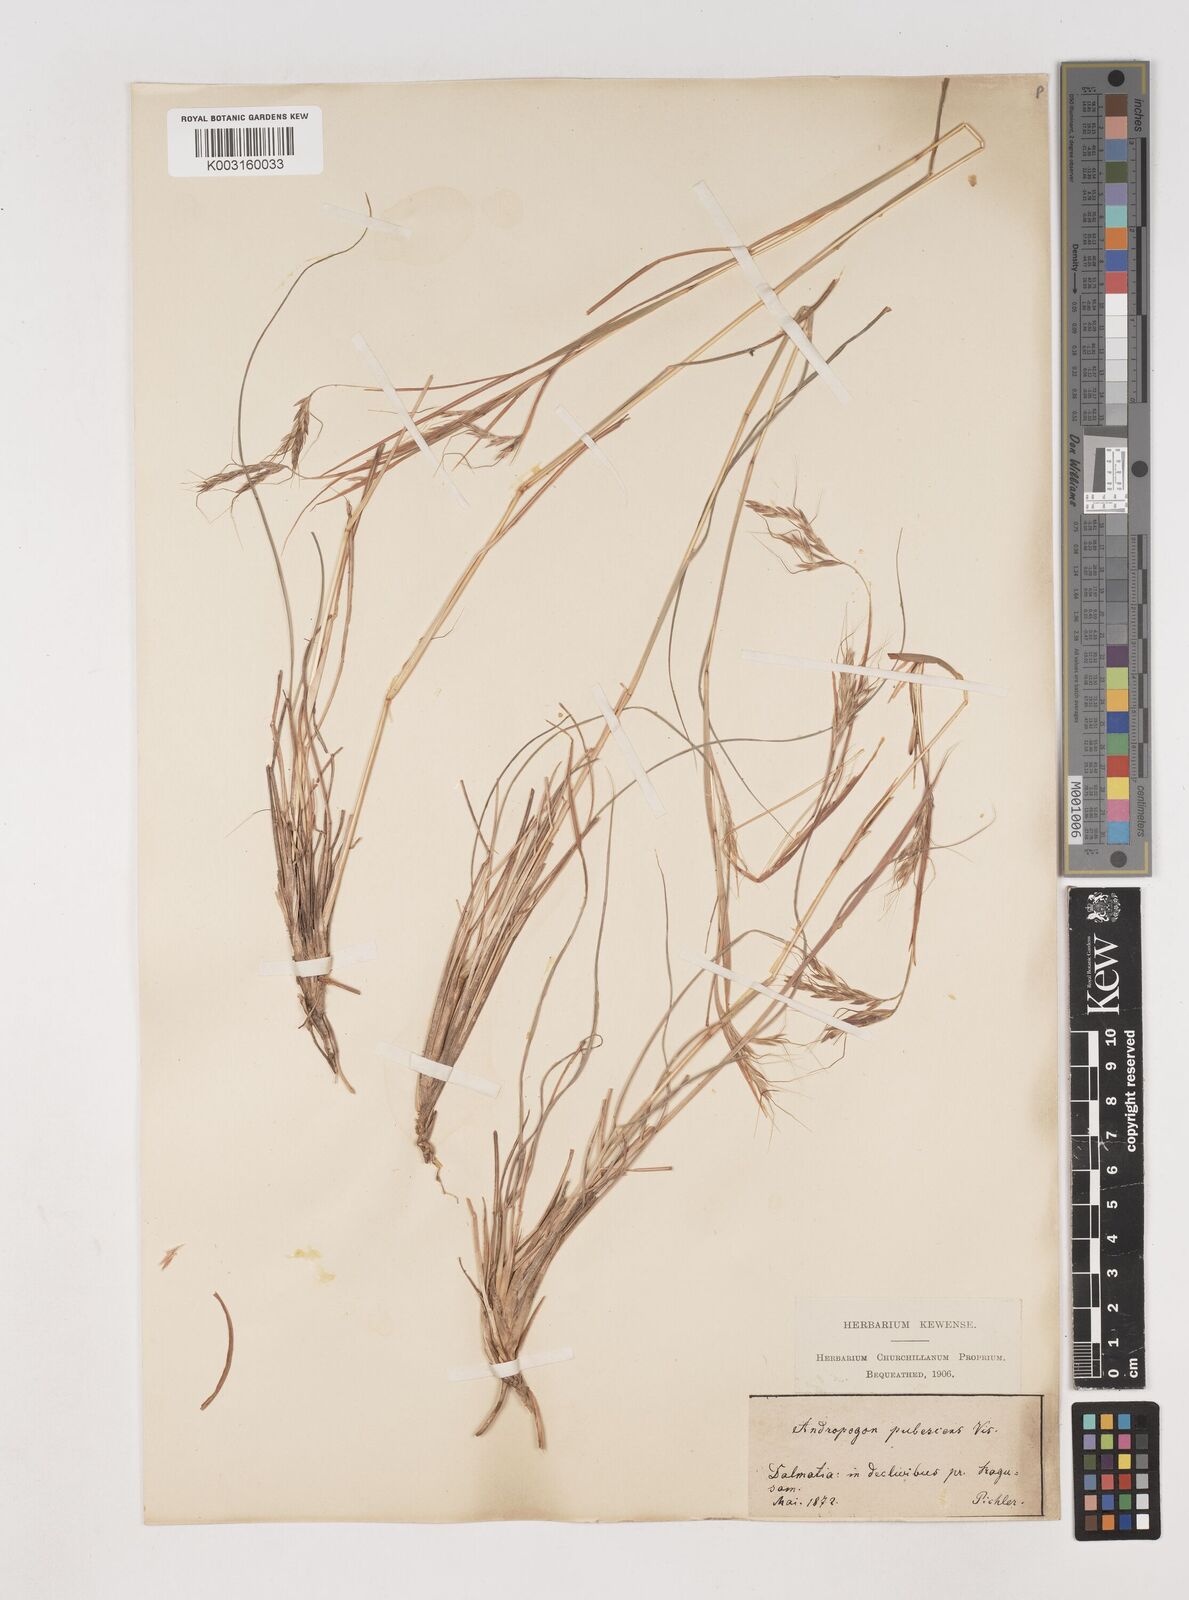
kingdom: Plantae
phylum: Tracheophyta
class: Liliopsida
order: Poales
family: Poaceae
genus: Hyparrhenia
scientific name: Hyparrhenia hirta
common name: Thatching grass
